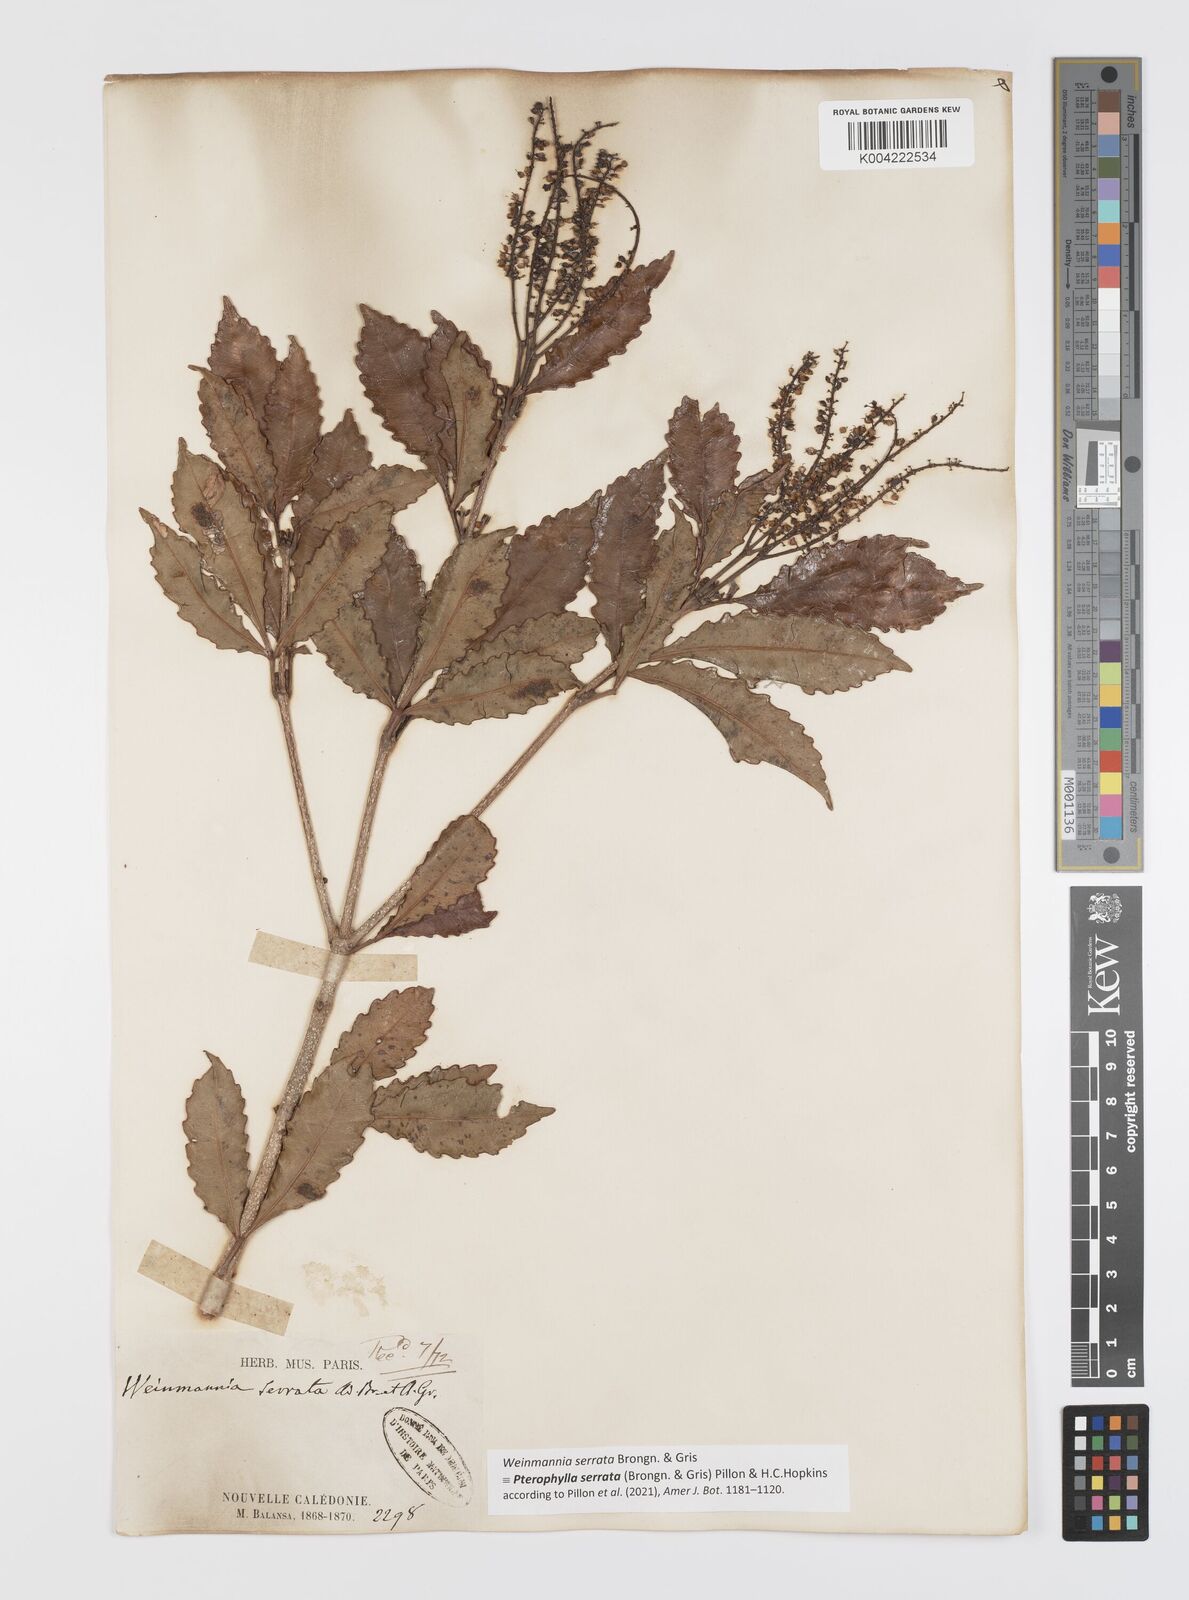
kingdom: Plantae
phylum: Tracheophyta
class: Magnoliopsida
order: Oxalidales
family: Cunoniaceae
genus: Pterophylla
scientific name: Pterophylla serrata
